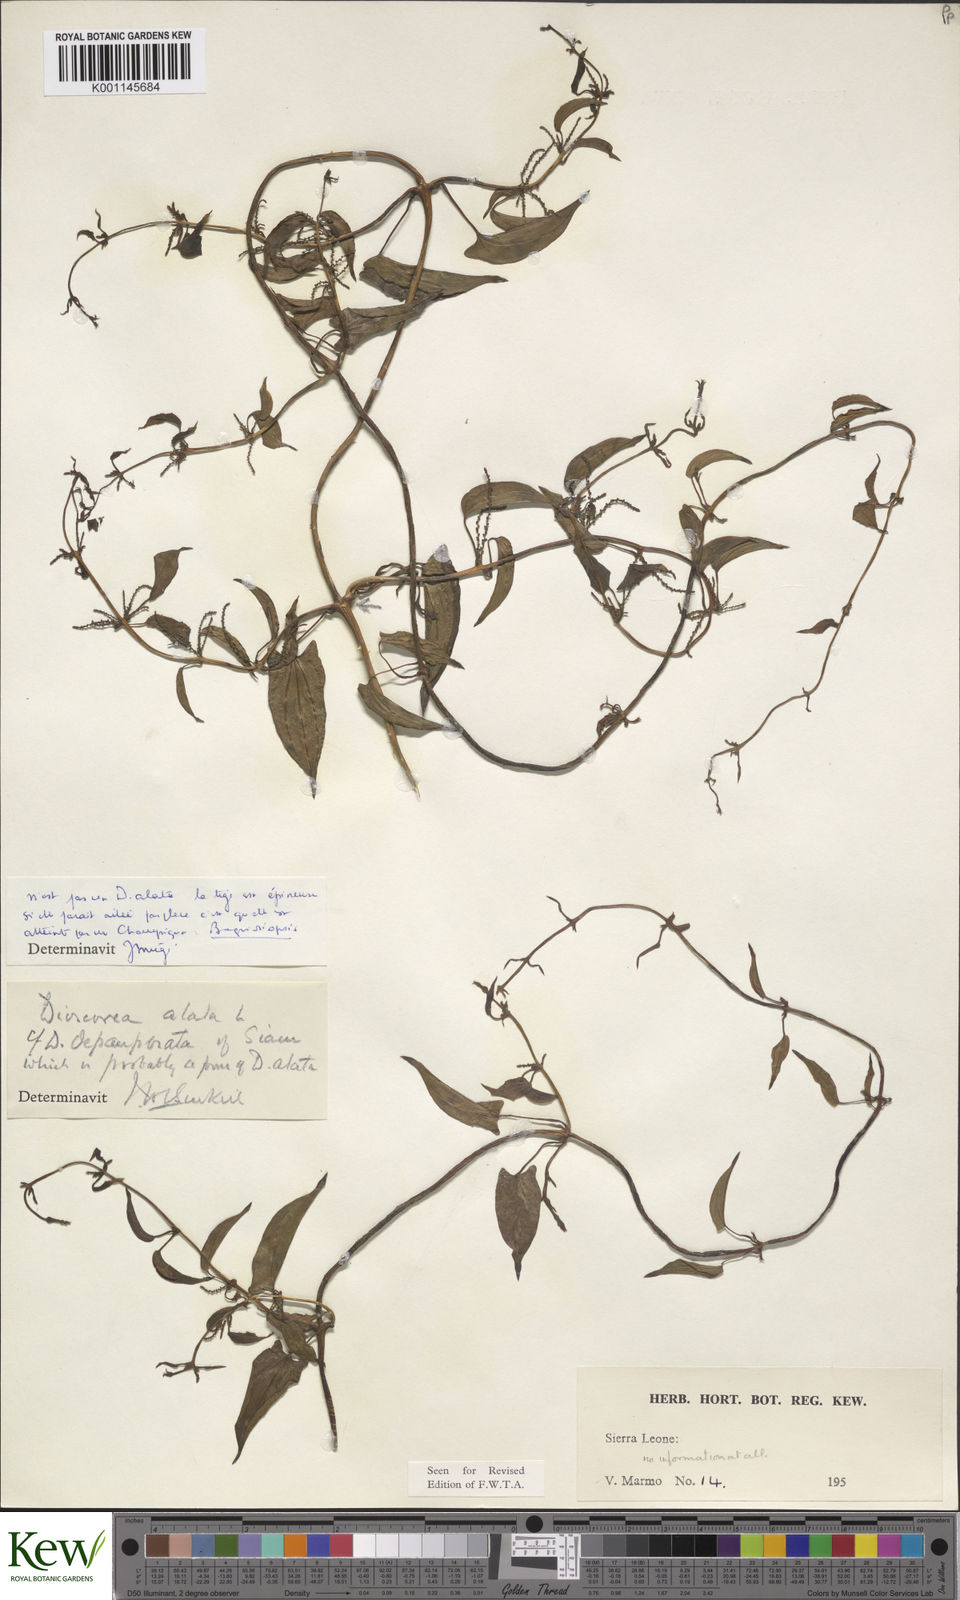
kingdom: Plantae
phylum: Tracheophyta
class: Liliopsida
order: Dioscoreales
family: Dioscoreaceae
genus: Dioscorea
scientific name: Dioscorea alata
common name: Water yam
